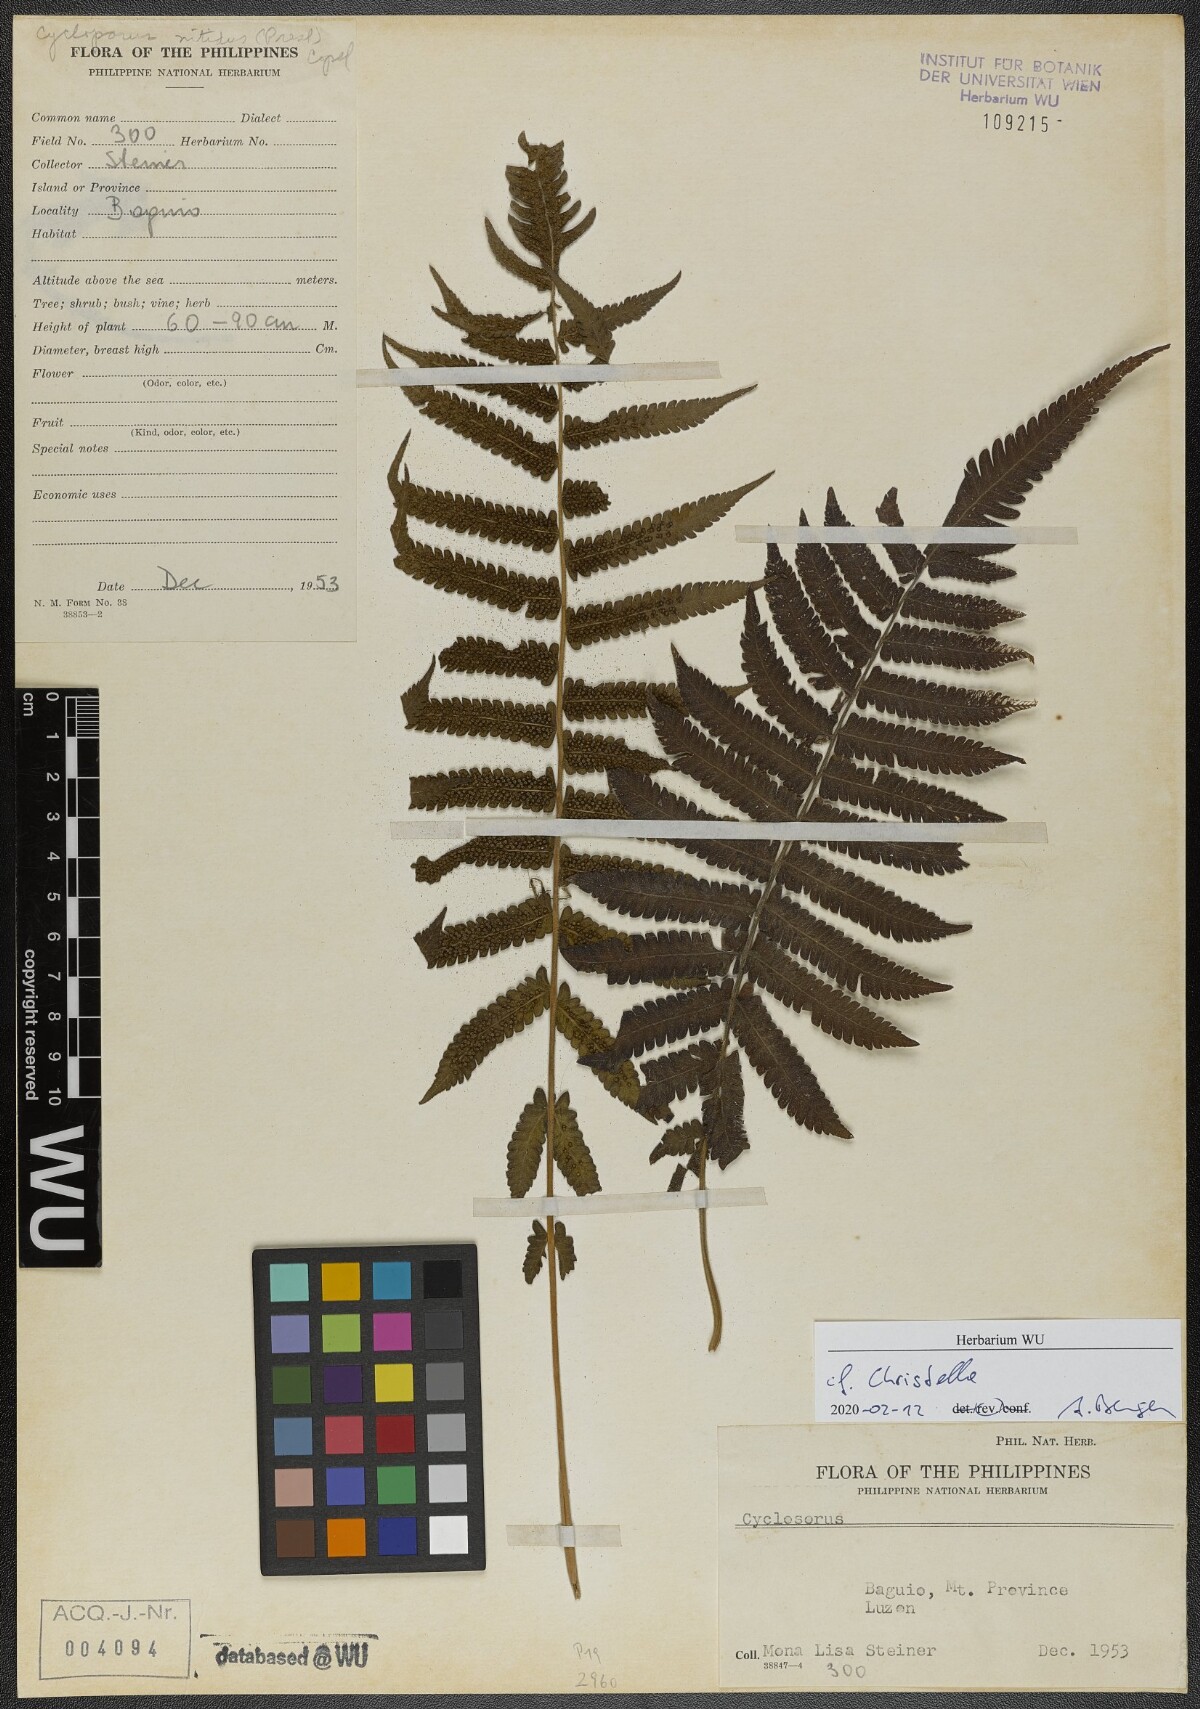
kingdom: Plantae
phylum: Tracheophyta
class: Polypodiopsida
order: Polypodiales
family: Thelypteridaceae
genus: Christella
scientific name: Christella
